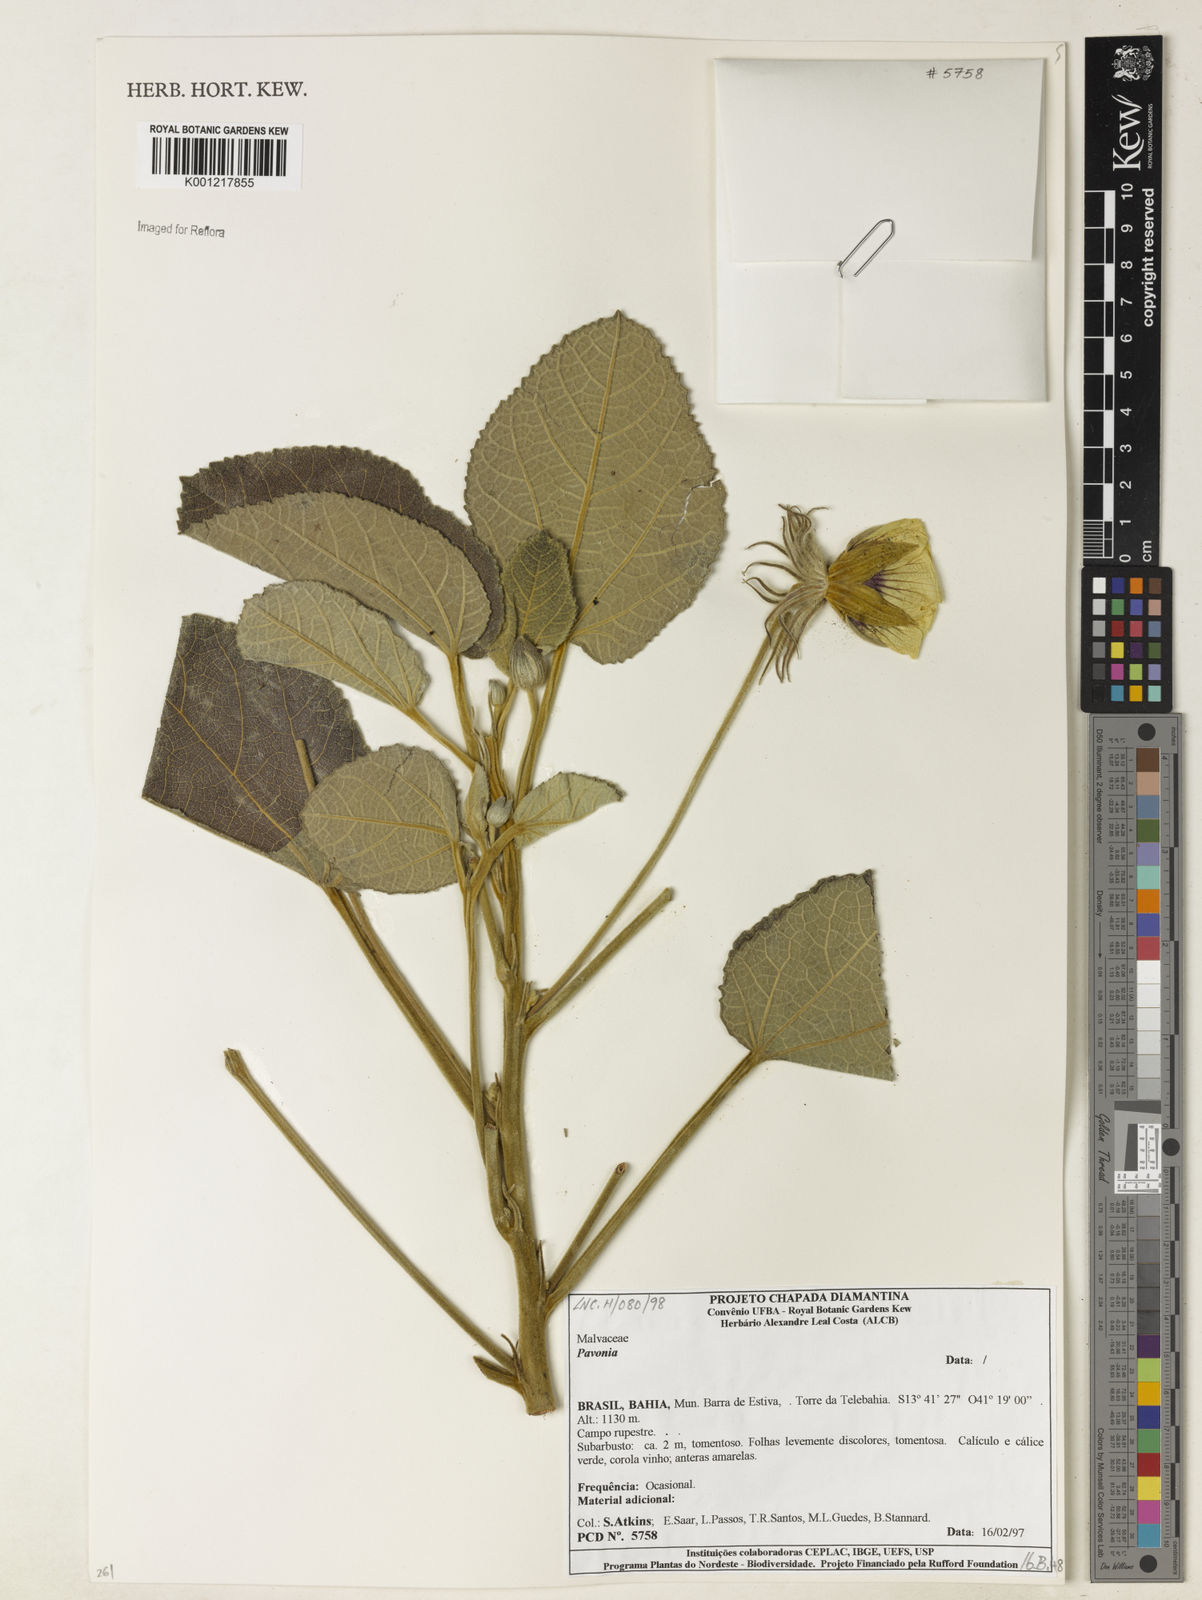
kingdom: Plantae
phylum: Tracheophyta
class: Magnoliopsida
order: Malvales
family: Malvaceae
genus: Pavonia
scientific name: Pavonia
